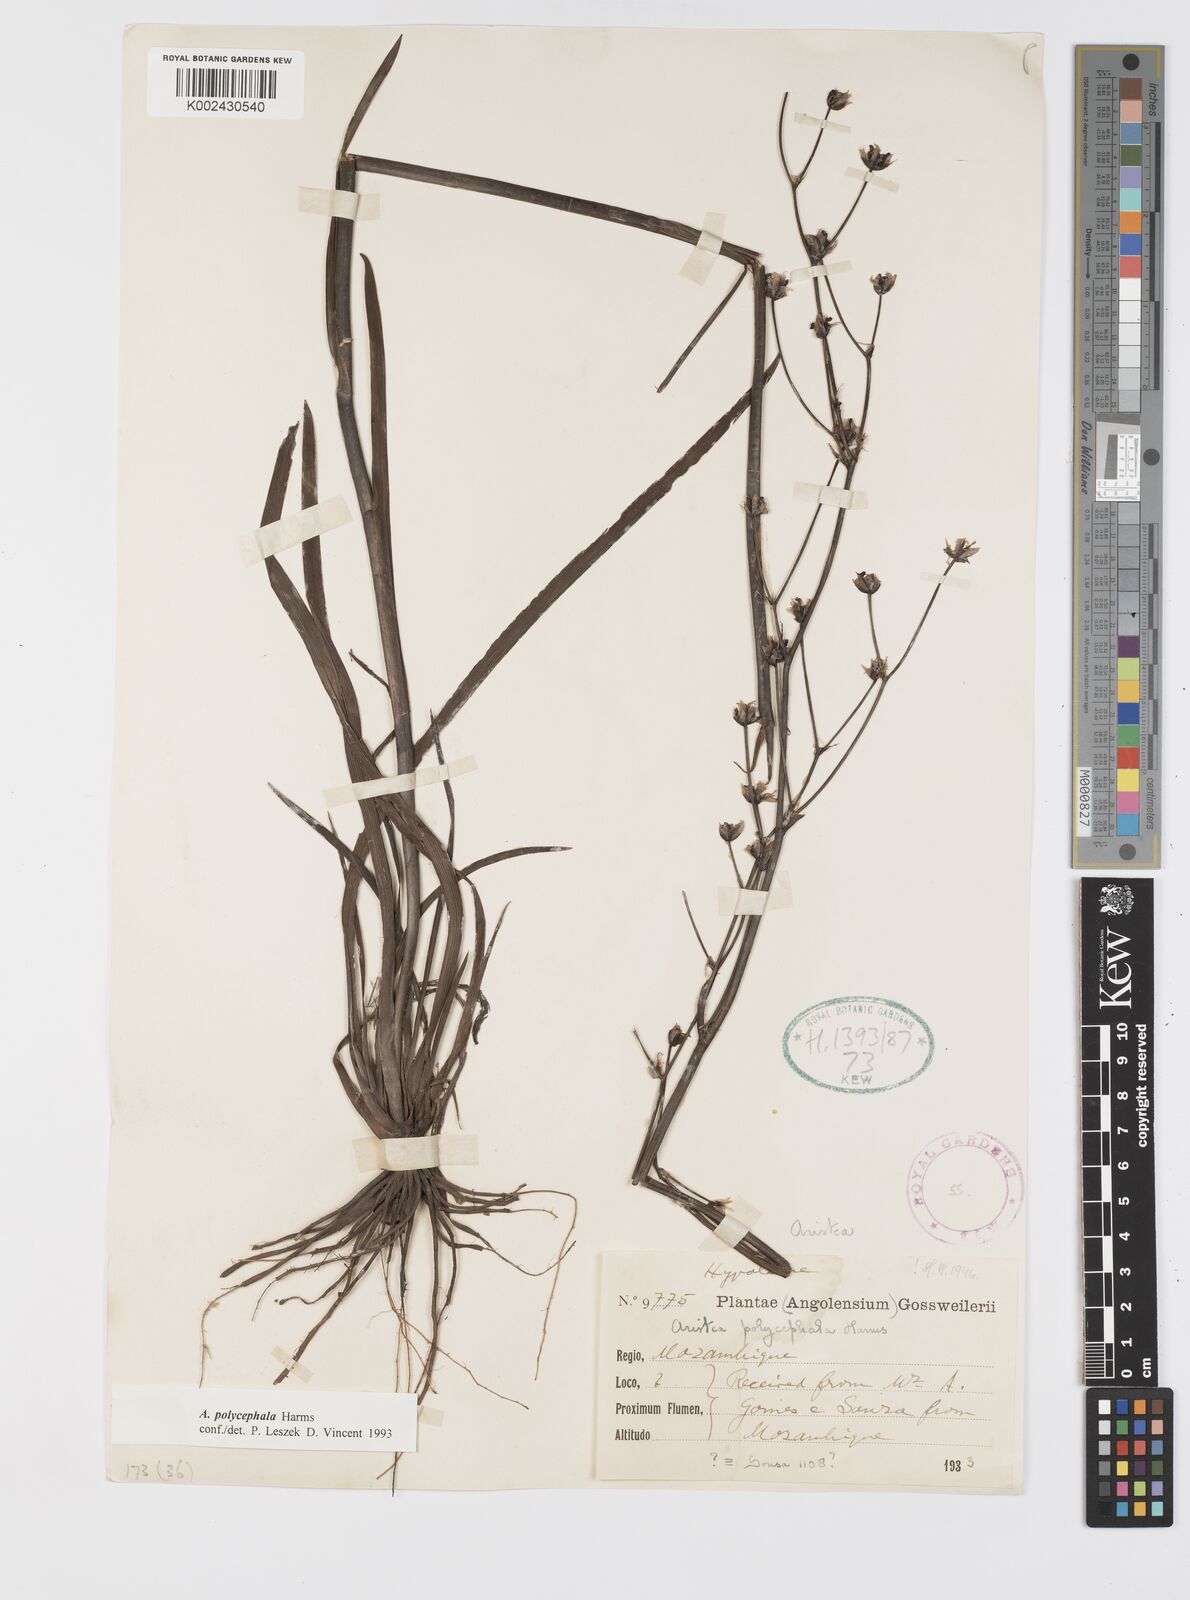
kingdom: Plantae
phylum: Tracheophyta
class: Liliopsida
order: Asparagales
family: Iridaceae
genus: Aristea
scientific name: Aristea polycephala
